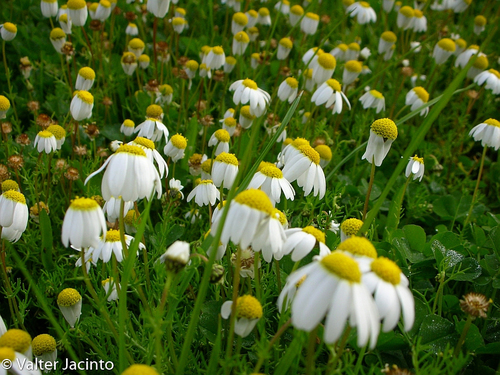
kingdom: Plantae
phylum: Tracheophyta
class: Magnoliopsida
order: Asterales
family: Asteraceae
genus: Chamaemelum
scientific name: Chamaemelum fuscatum
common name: Chamomile
